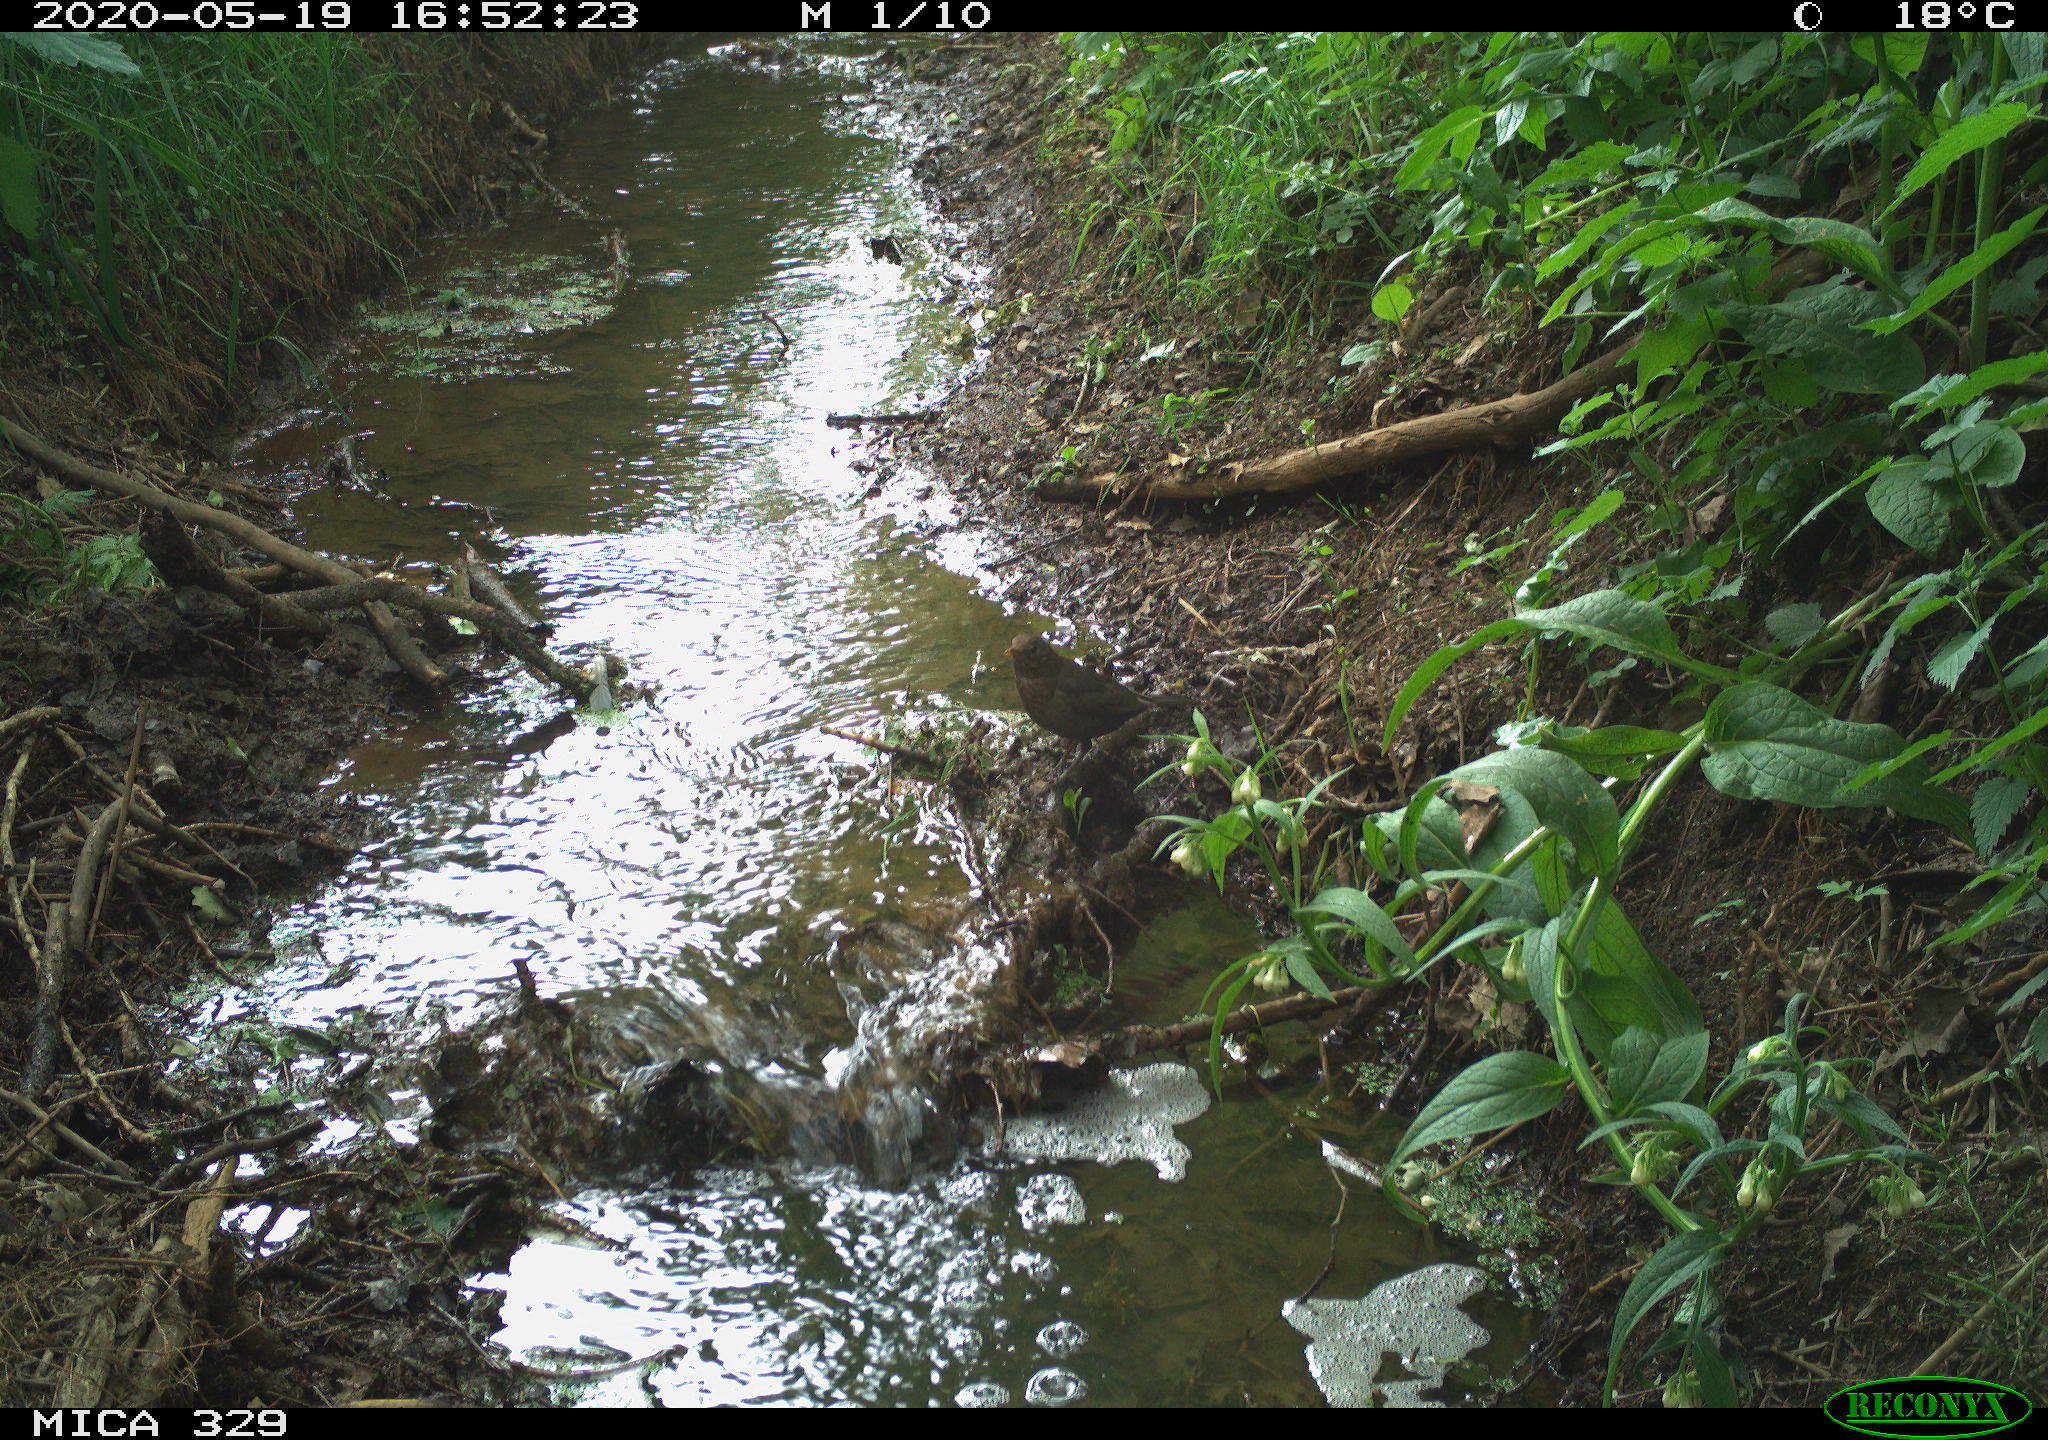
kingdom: Animalia
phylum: Chordata
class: Aves
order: Passeriformes
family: Turdidae
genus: Turdus
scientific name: Turdus merula
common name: Common blackbird
